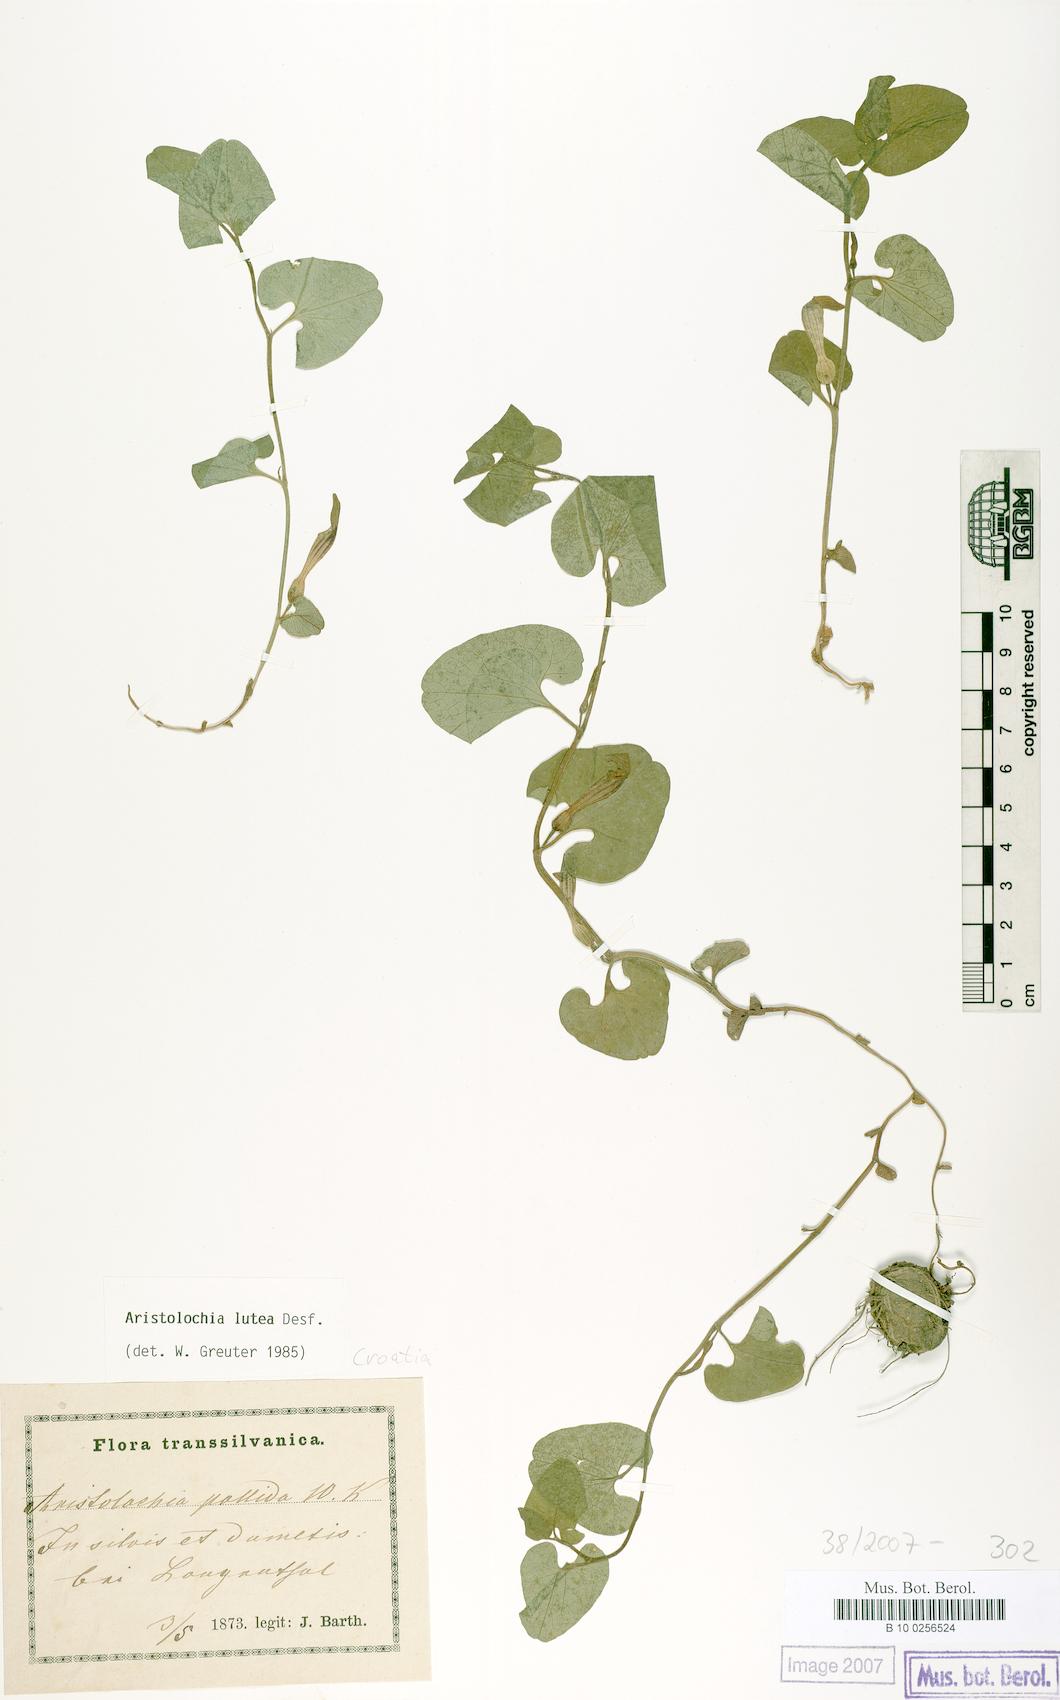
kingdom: Plantae
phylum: Tracheophyta
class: Magnoliopsida
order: Piperales
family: Aristolochiaceae
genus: Aristolochia
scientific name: Aristolochia lutea
